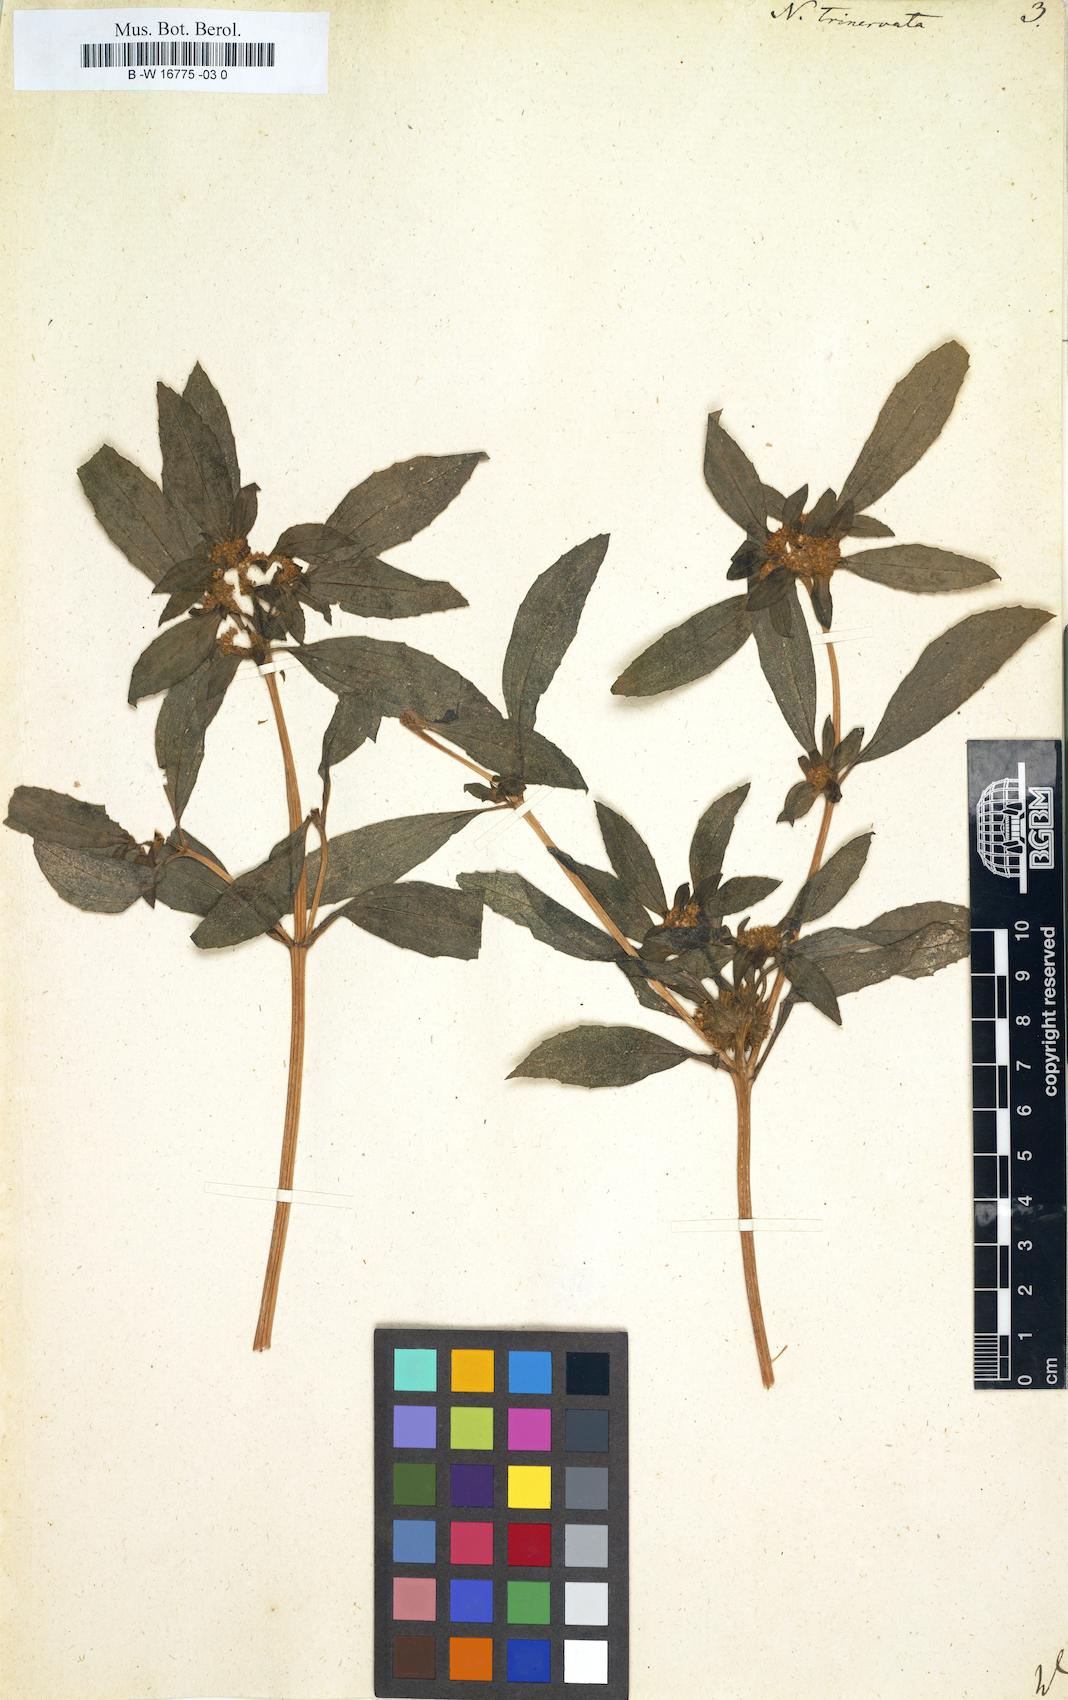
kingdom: Plantae
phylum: Tracheophyta
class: Magnoliopsida
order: Asterales
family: Asteraceae
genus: Flaveria
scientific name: Flaveria trinervia
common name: Clustered yellowtops
